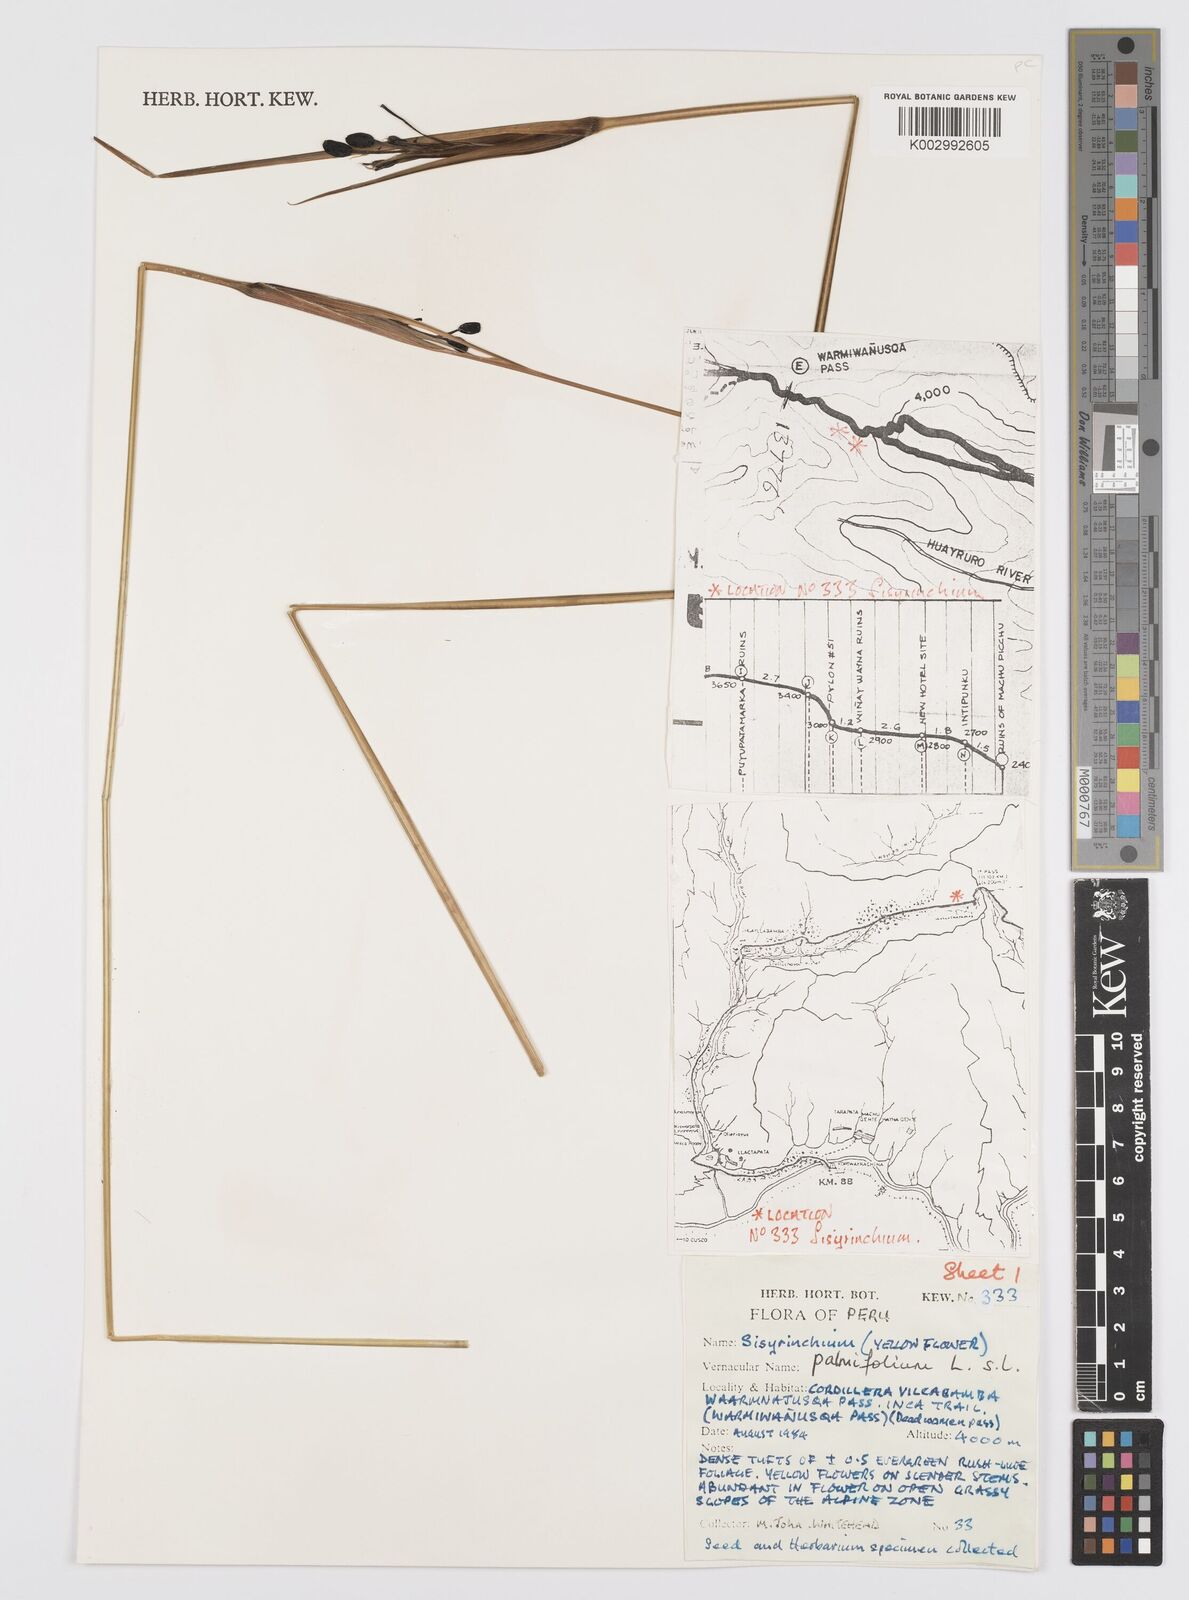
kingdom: Plantae
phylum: Tracheophyta
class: Liliopsida
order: Asparagales
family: Iridaceae
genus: Sisyrinchium
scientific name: Sisyrinchium palmifolium
